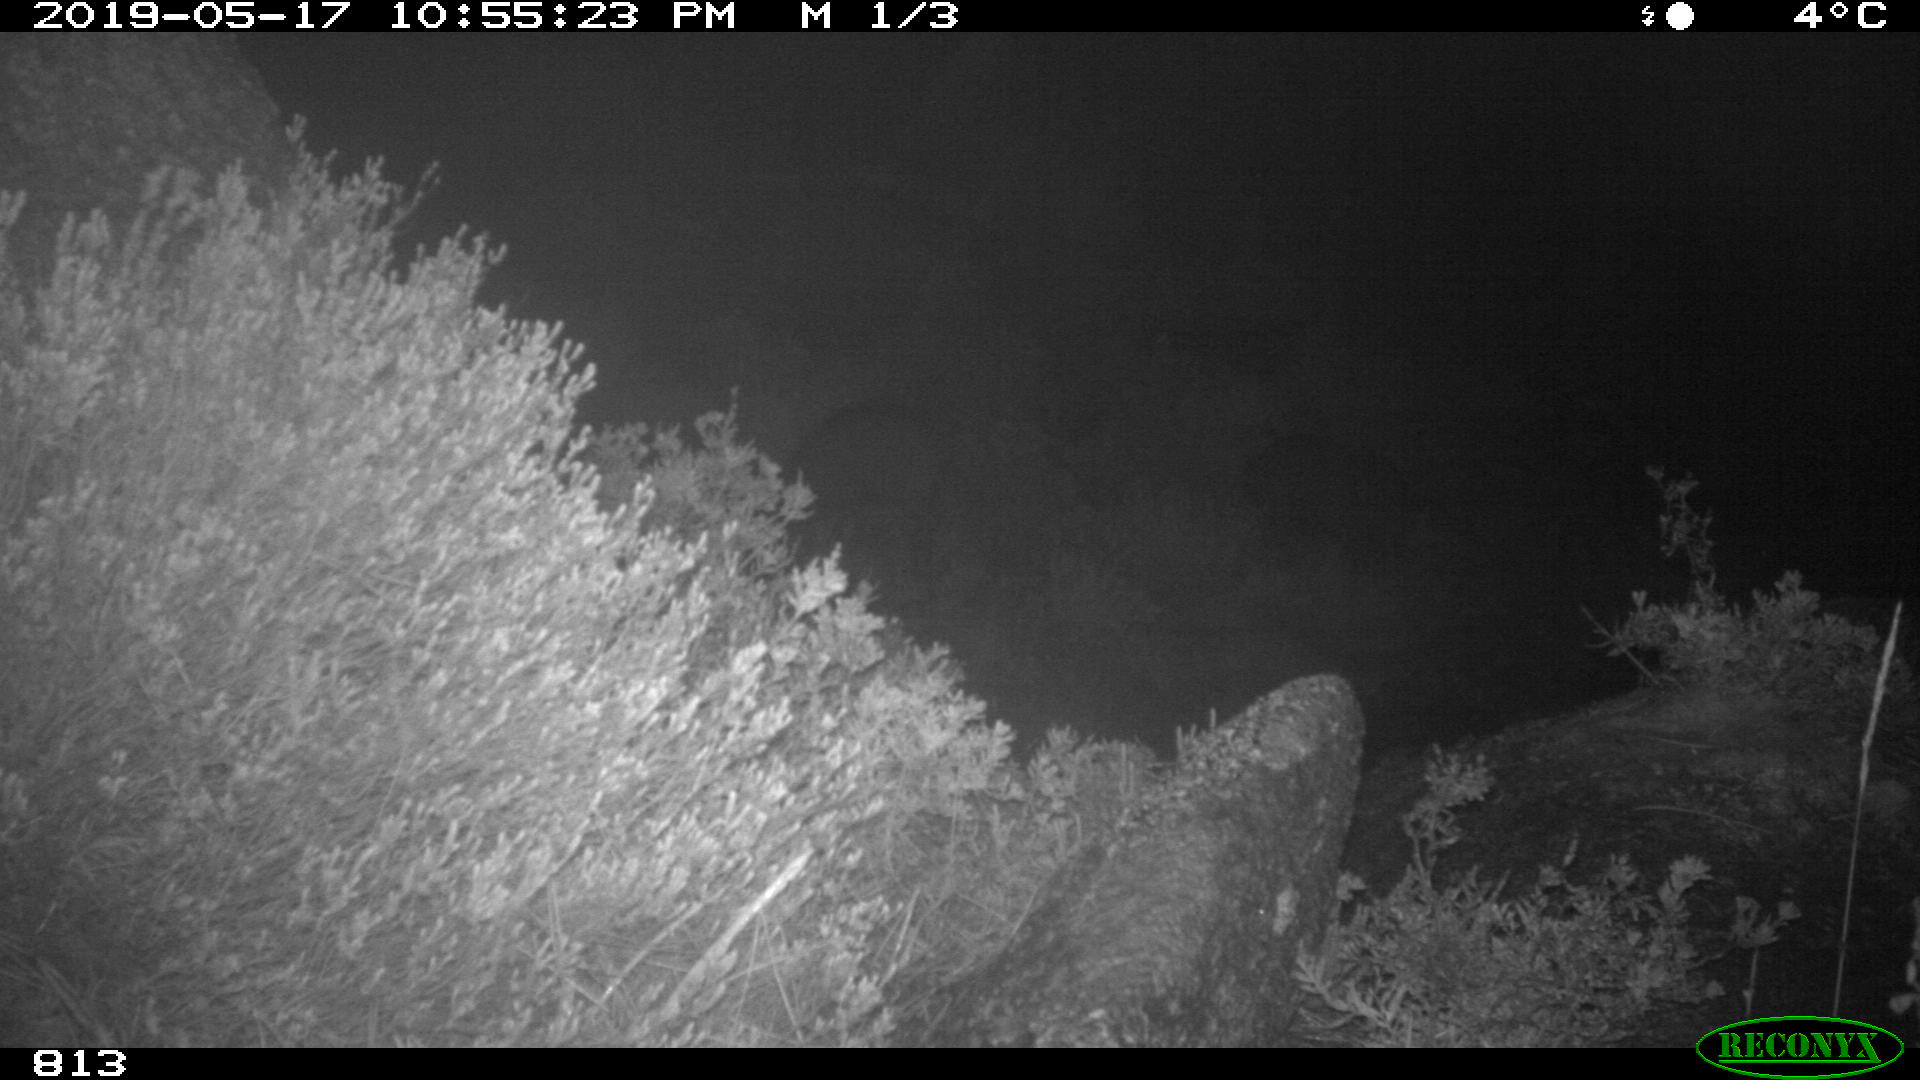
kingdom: Animalia
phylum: Chordata
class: Mammalia
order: Artiodactyla
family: Suidae
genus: Sus
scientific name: Sus scrofa
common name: Wild boar
